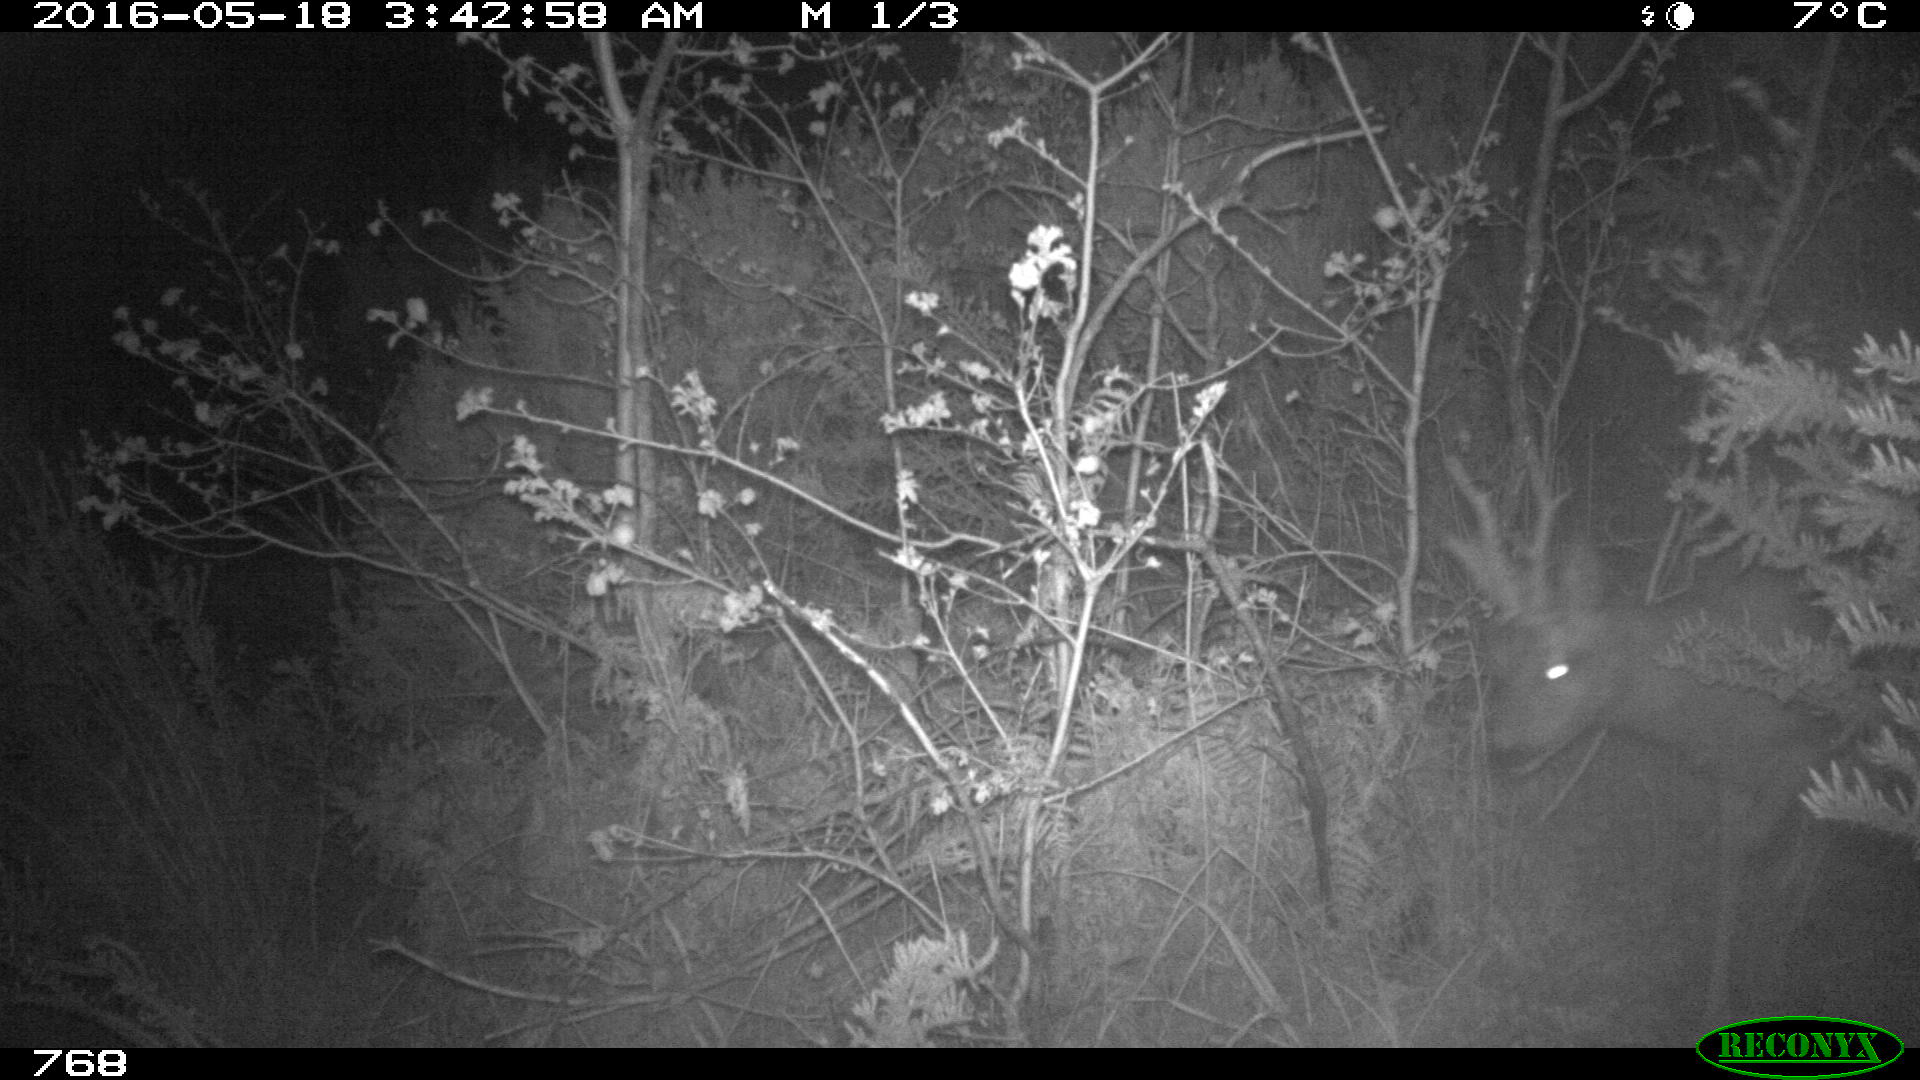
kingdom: Animalia
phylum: Chordata
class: Mammalia
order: Artiodactyla
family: Cervidae
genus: Capreolus
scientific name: Capreolus capreolus
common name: Western roe deer
